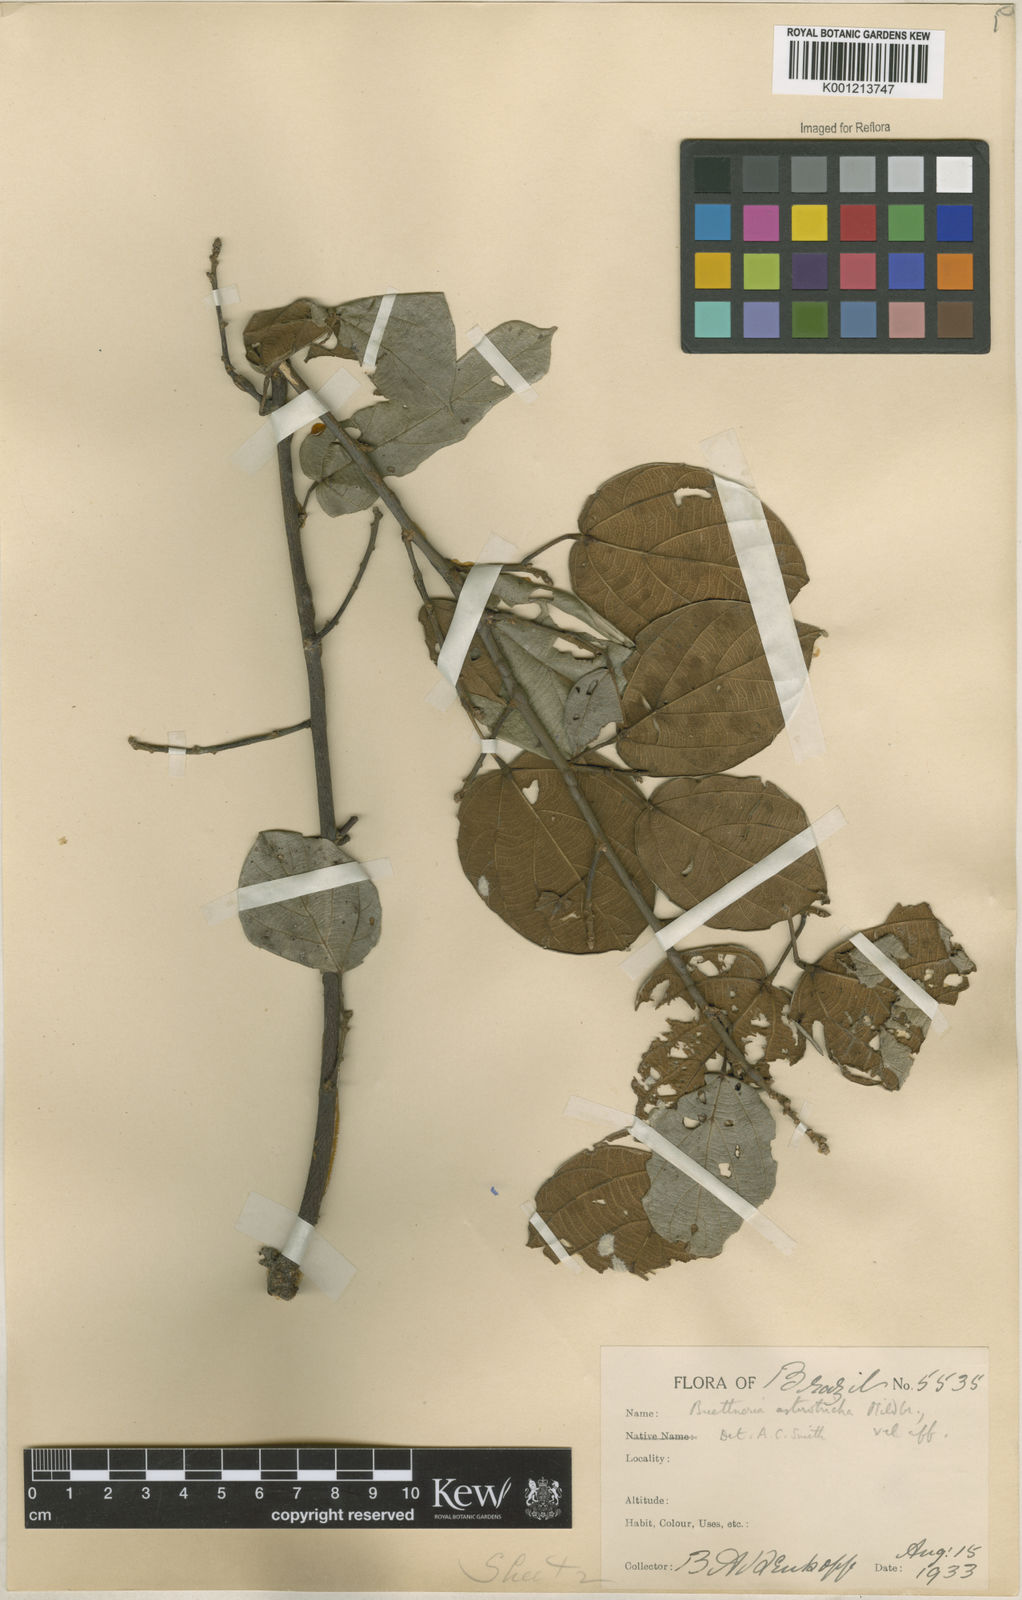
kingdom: Plantae
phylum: Tracheophyta
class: Magnoliopsida
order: Malvales
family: Malvaceae
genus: Byttneria
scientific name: Byttneria asterotricha
